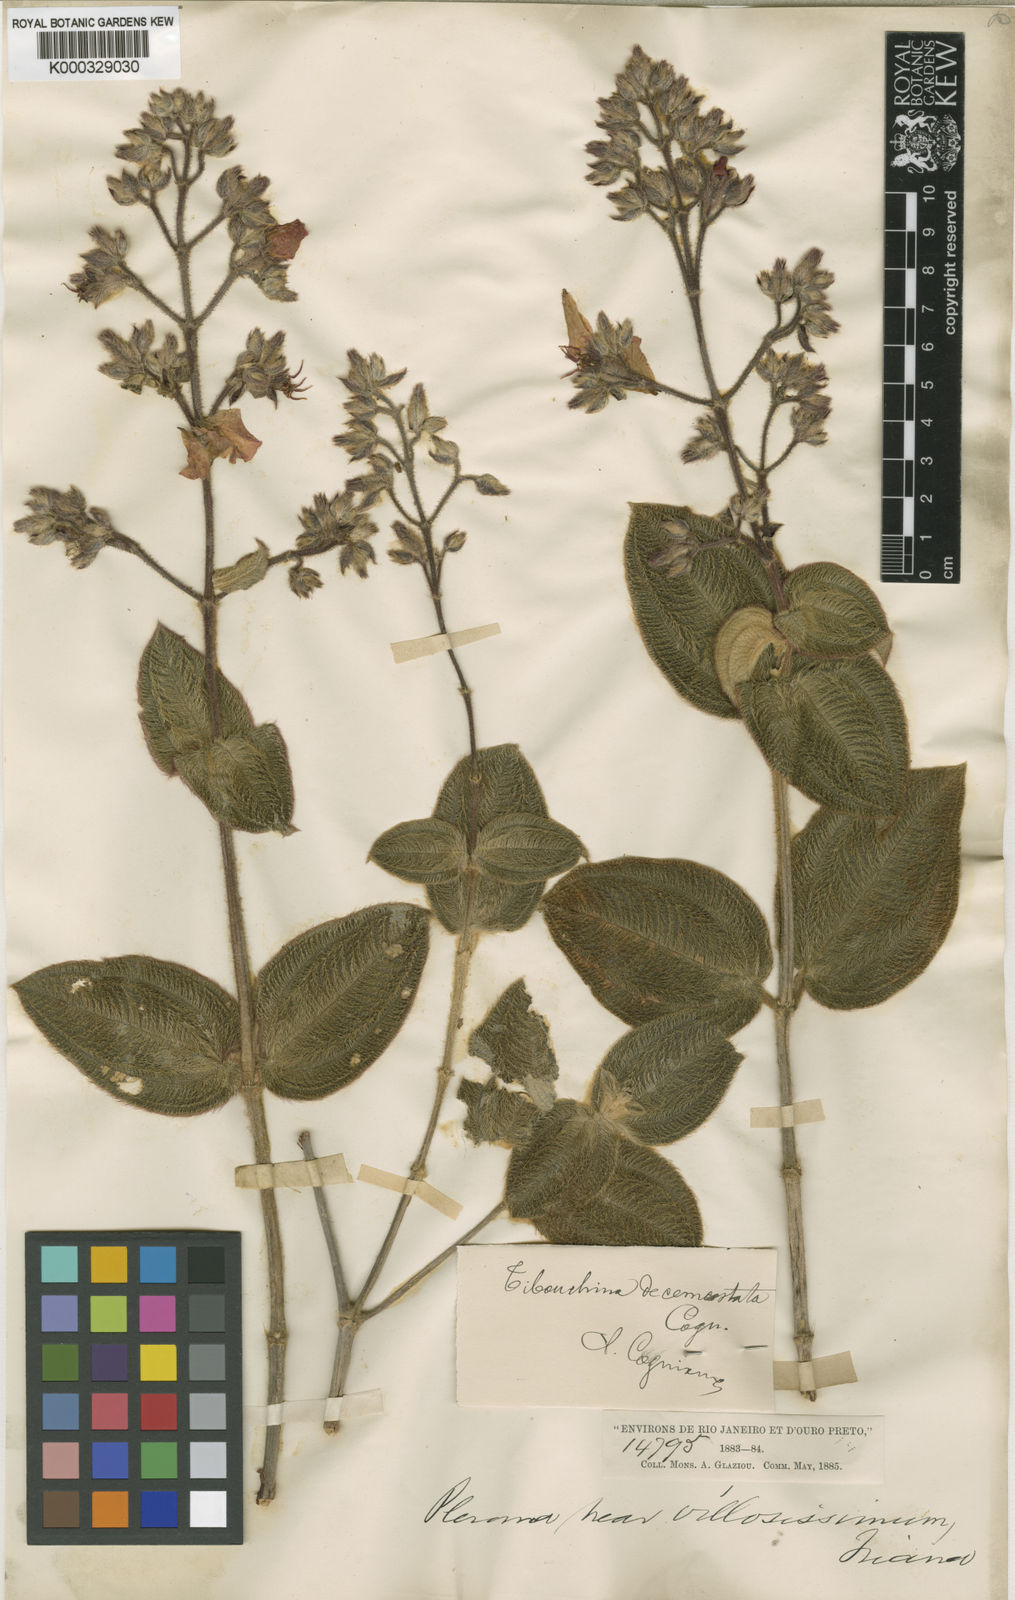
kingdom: Plantae
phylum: Tracheophyta
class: Magnoliopsida
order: Myrtales
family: Melastomataceae
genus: Pleroma
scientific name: Pleroma decemcostatum
